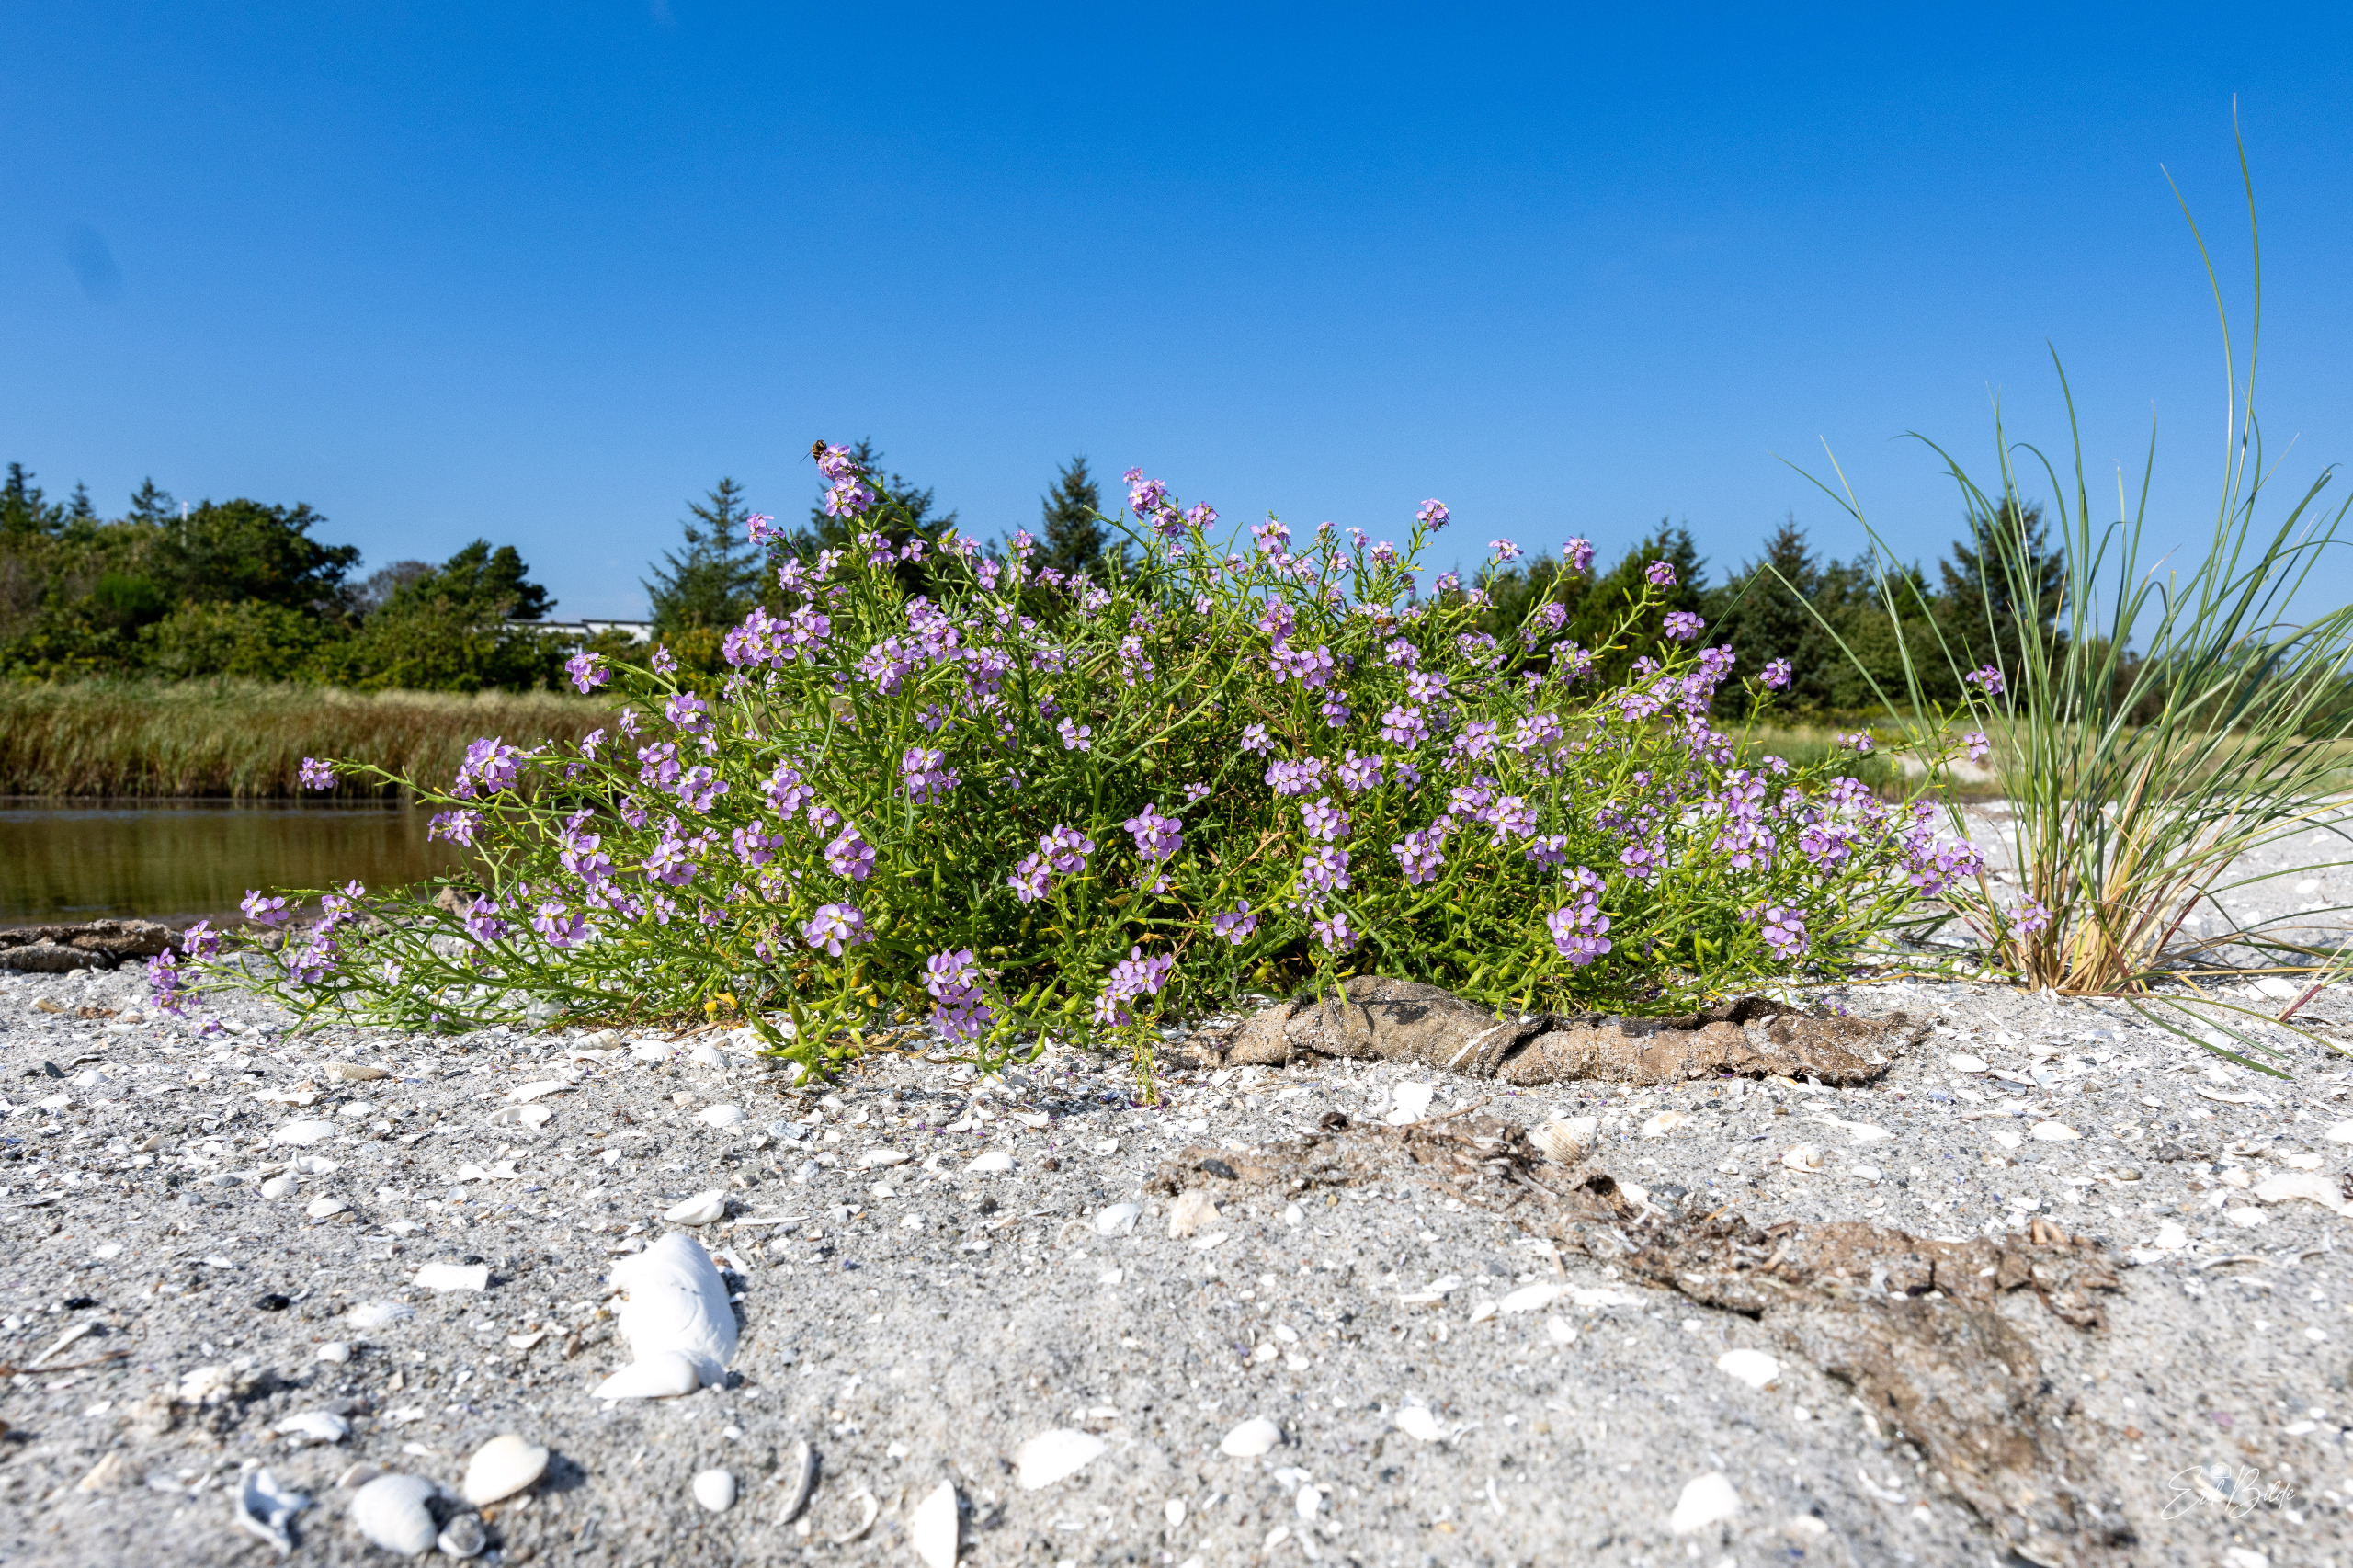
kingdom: Plantae
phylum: Tracheophyta
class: Magnoliopsida
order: Brassicales
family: Brassicaceae
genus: Cakile
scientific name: Cakile maritima
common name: Strandsennep
